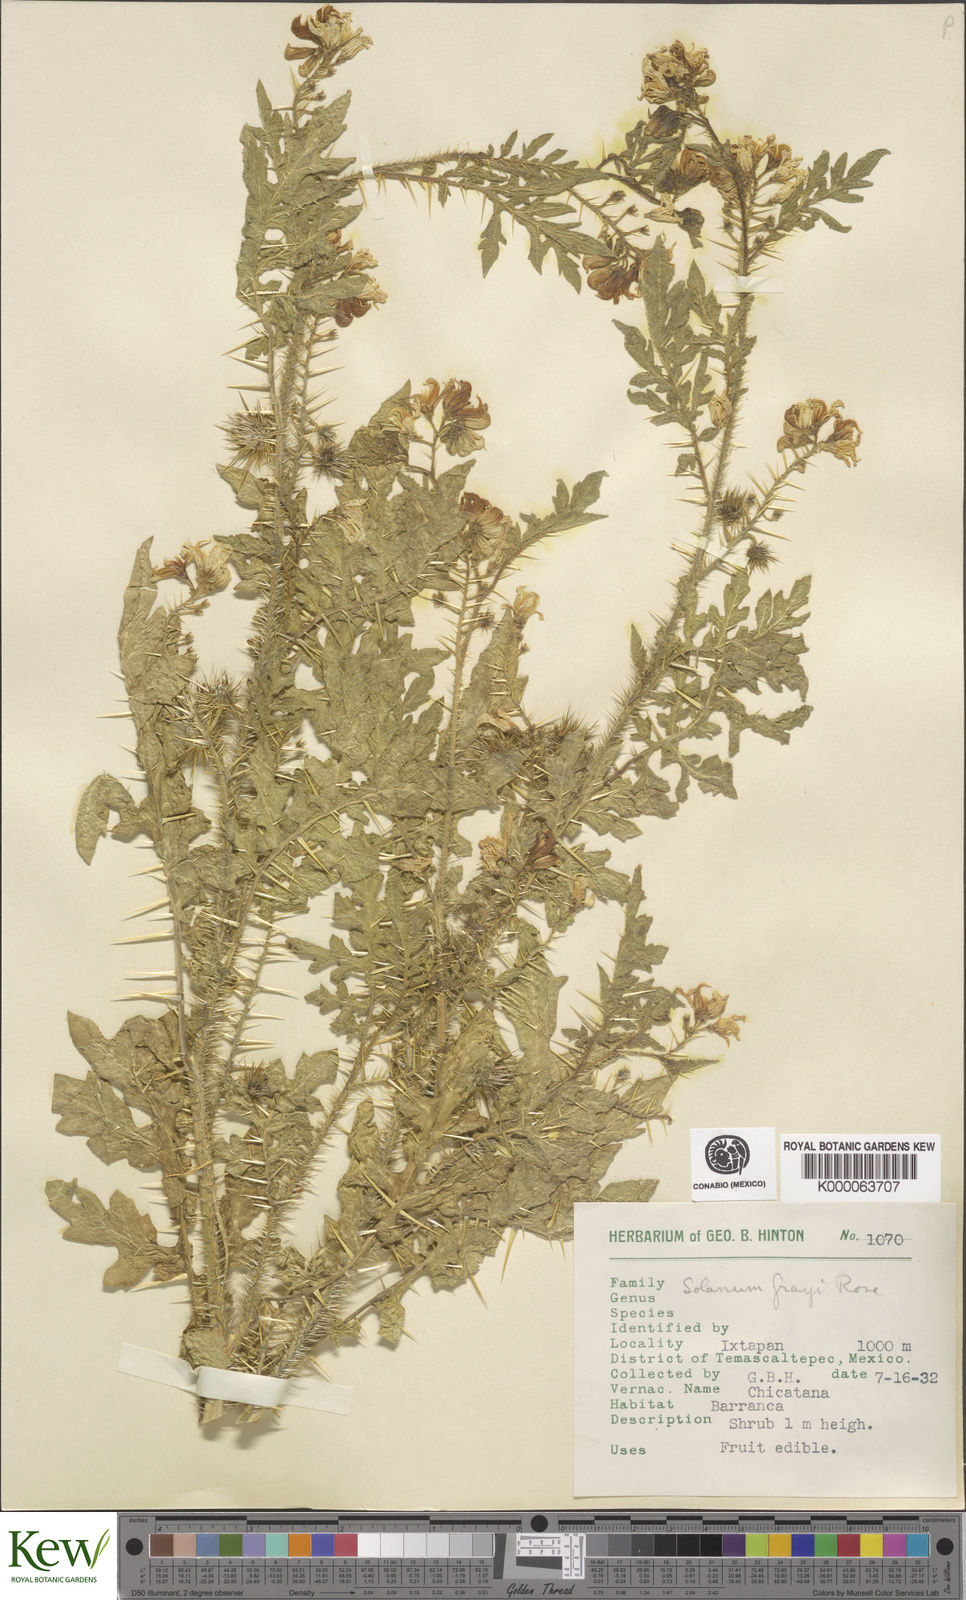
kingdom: Plantae
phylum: Tracheophyta
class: Magnoliopsida
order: Solanales
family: Solanaceae
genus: Solanum
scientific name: Solanum grayi
